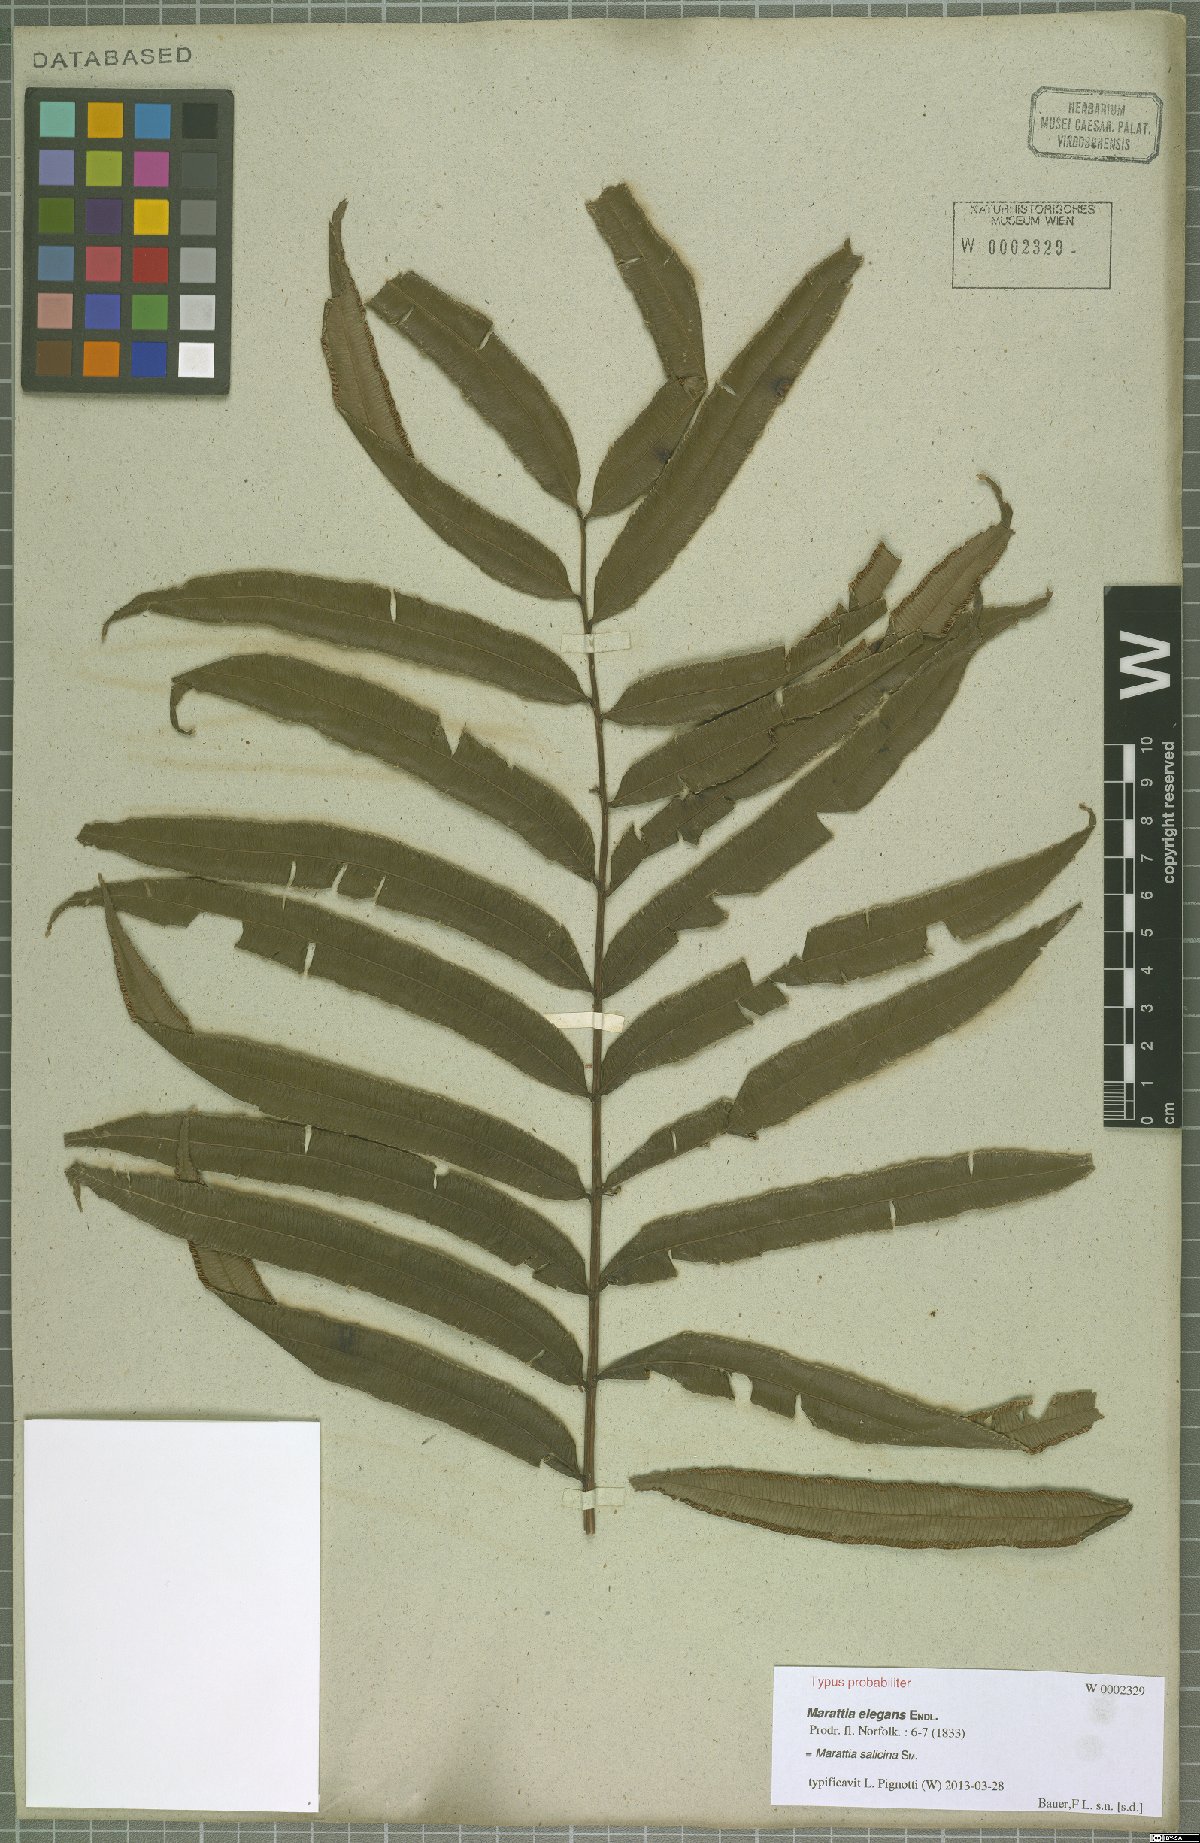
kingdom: Plantae
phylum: Tracheophyta
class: Polypodiopsida
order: Marattiales
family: Marattiaceae
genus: Ptisana
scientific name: Ptisana salicina
